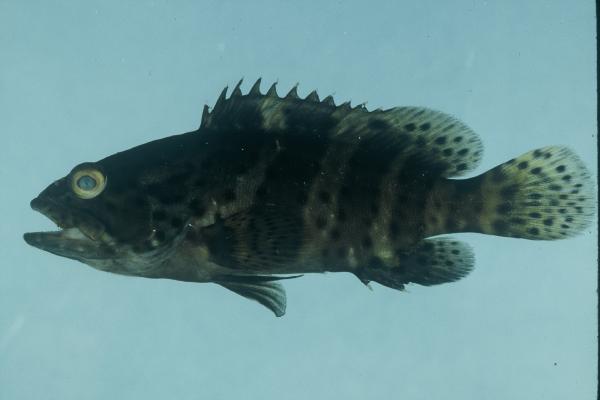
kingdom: Animalia
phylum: Chordata
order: Perciformes
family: Serranidae
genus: Epinephelus
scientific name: Epinephelus malabaricus
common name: Malabar grouper
